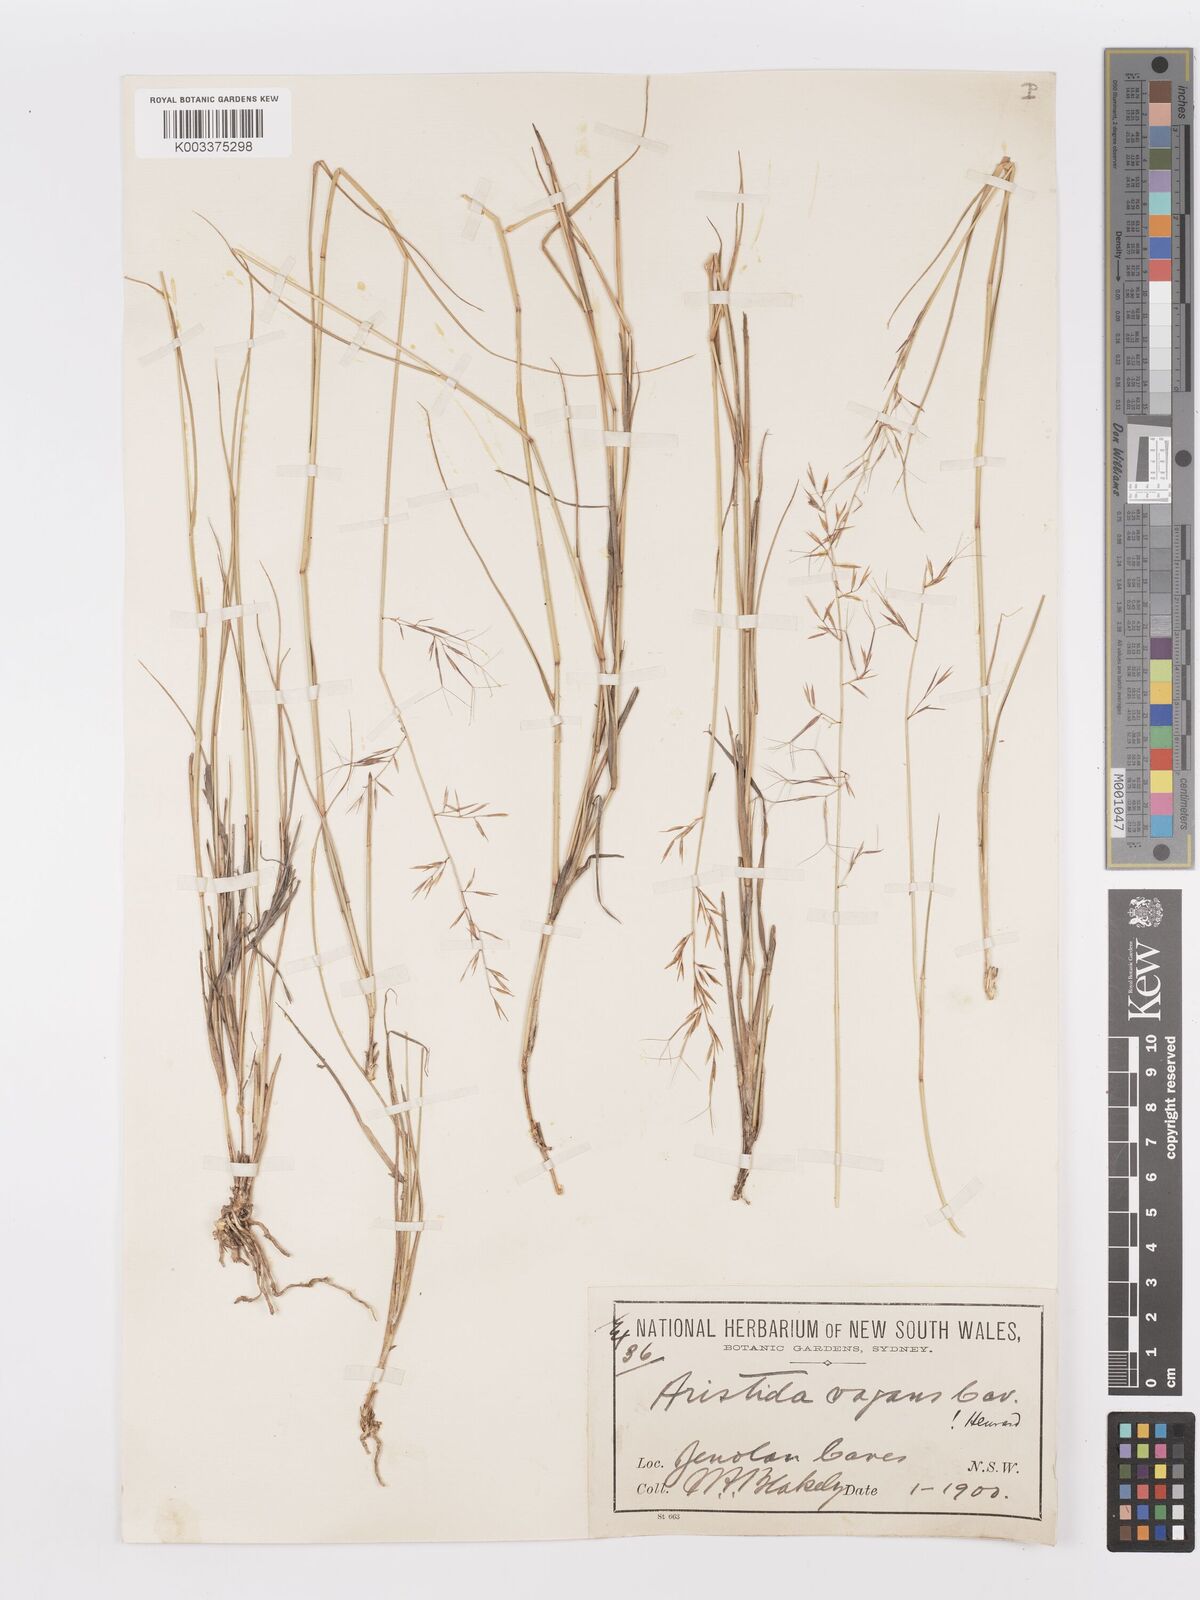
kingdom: Plantae
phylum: Tracheophyta
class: Liliopsida
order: Poales
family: Poaceae
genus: Aristida
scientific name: Aristida vagans
